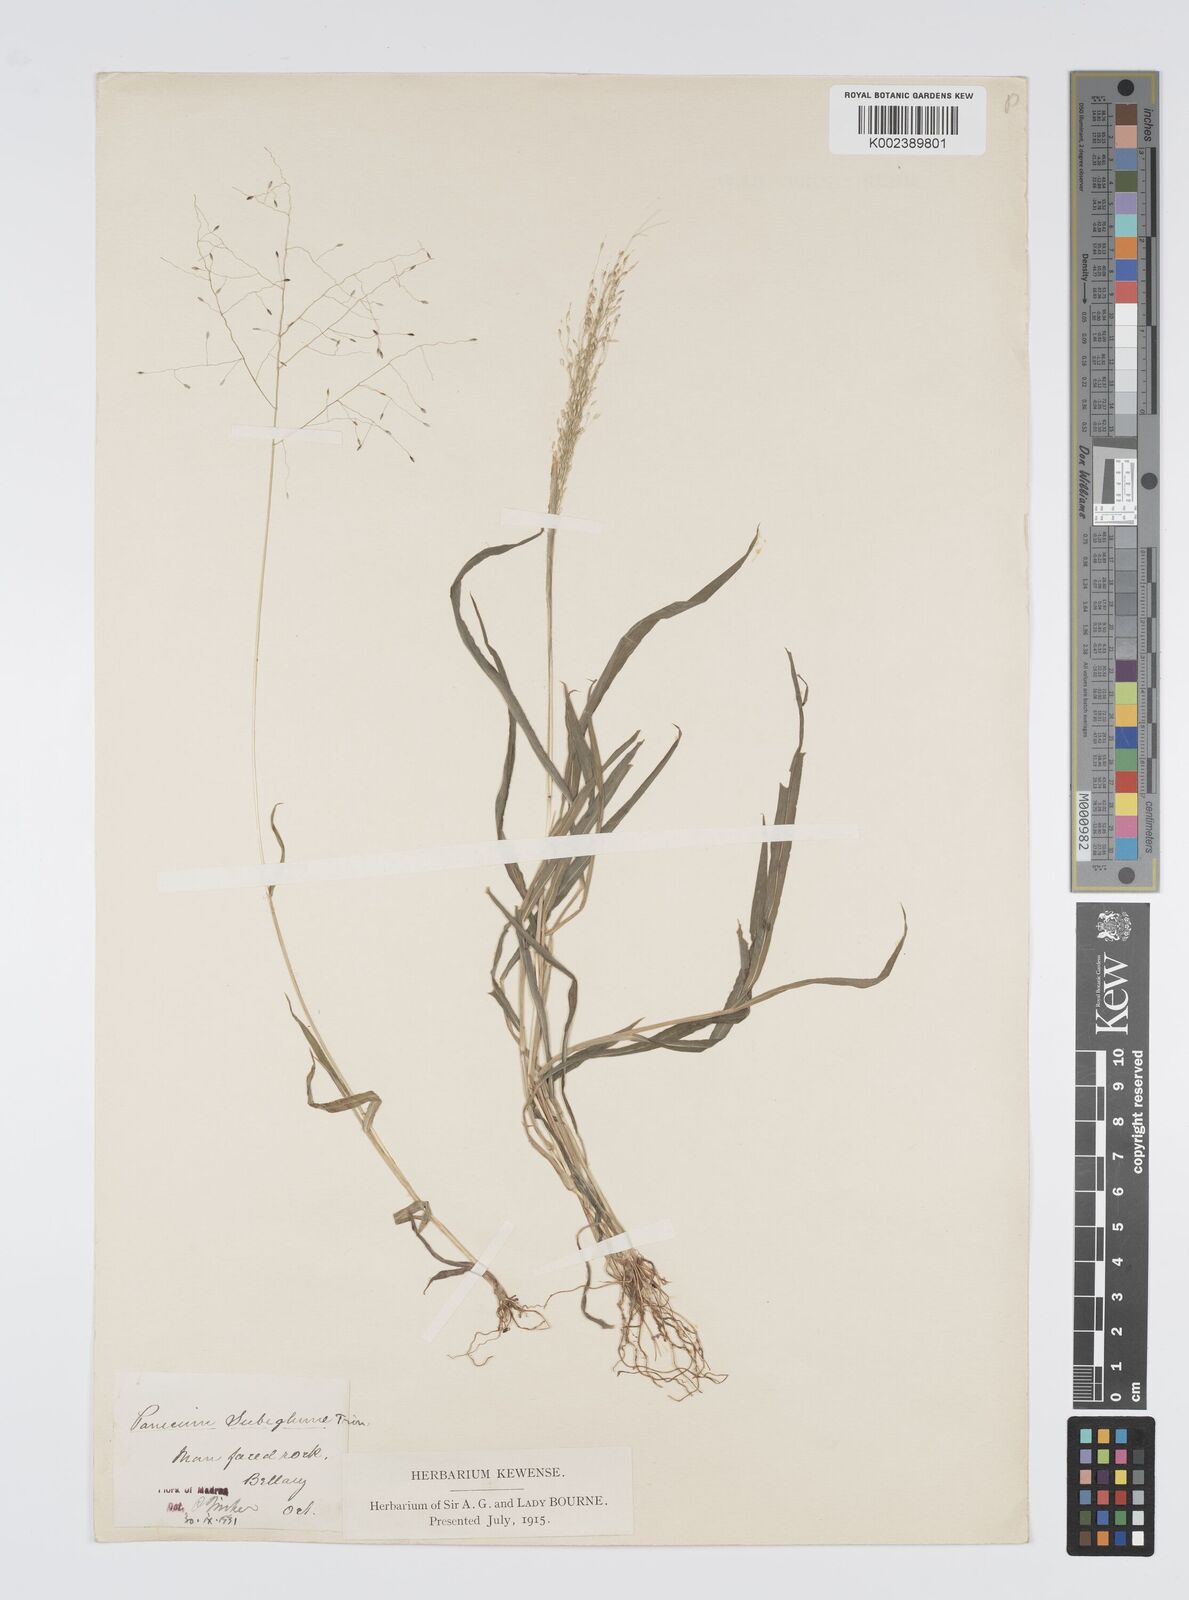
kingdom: Plantae
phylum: Tracheophyta
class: Liliopsida
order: Poales
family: Poaceae
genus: Digitaria
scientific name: Digitaria tomentosa
